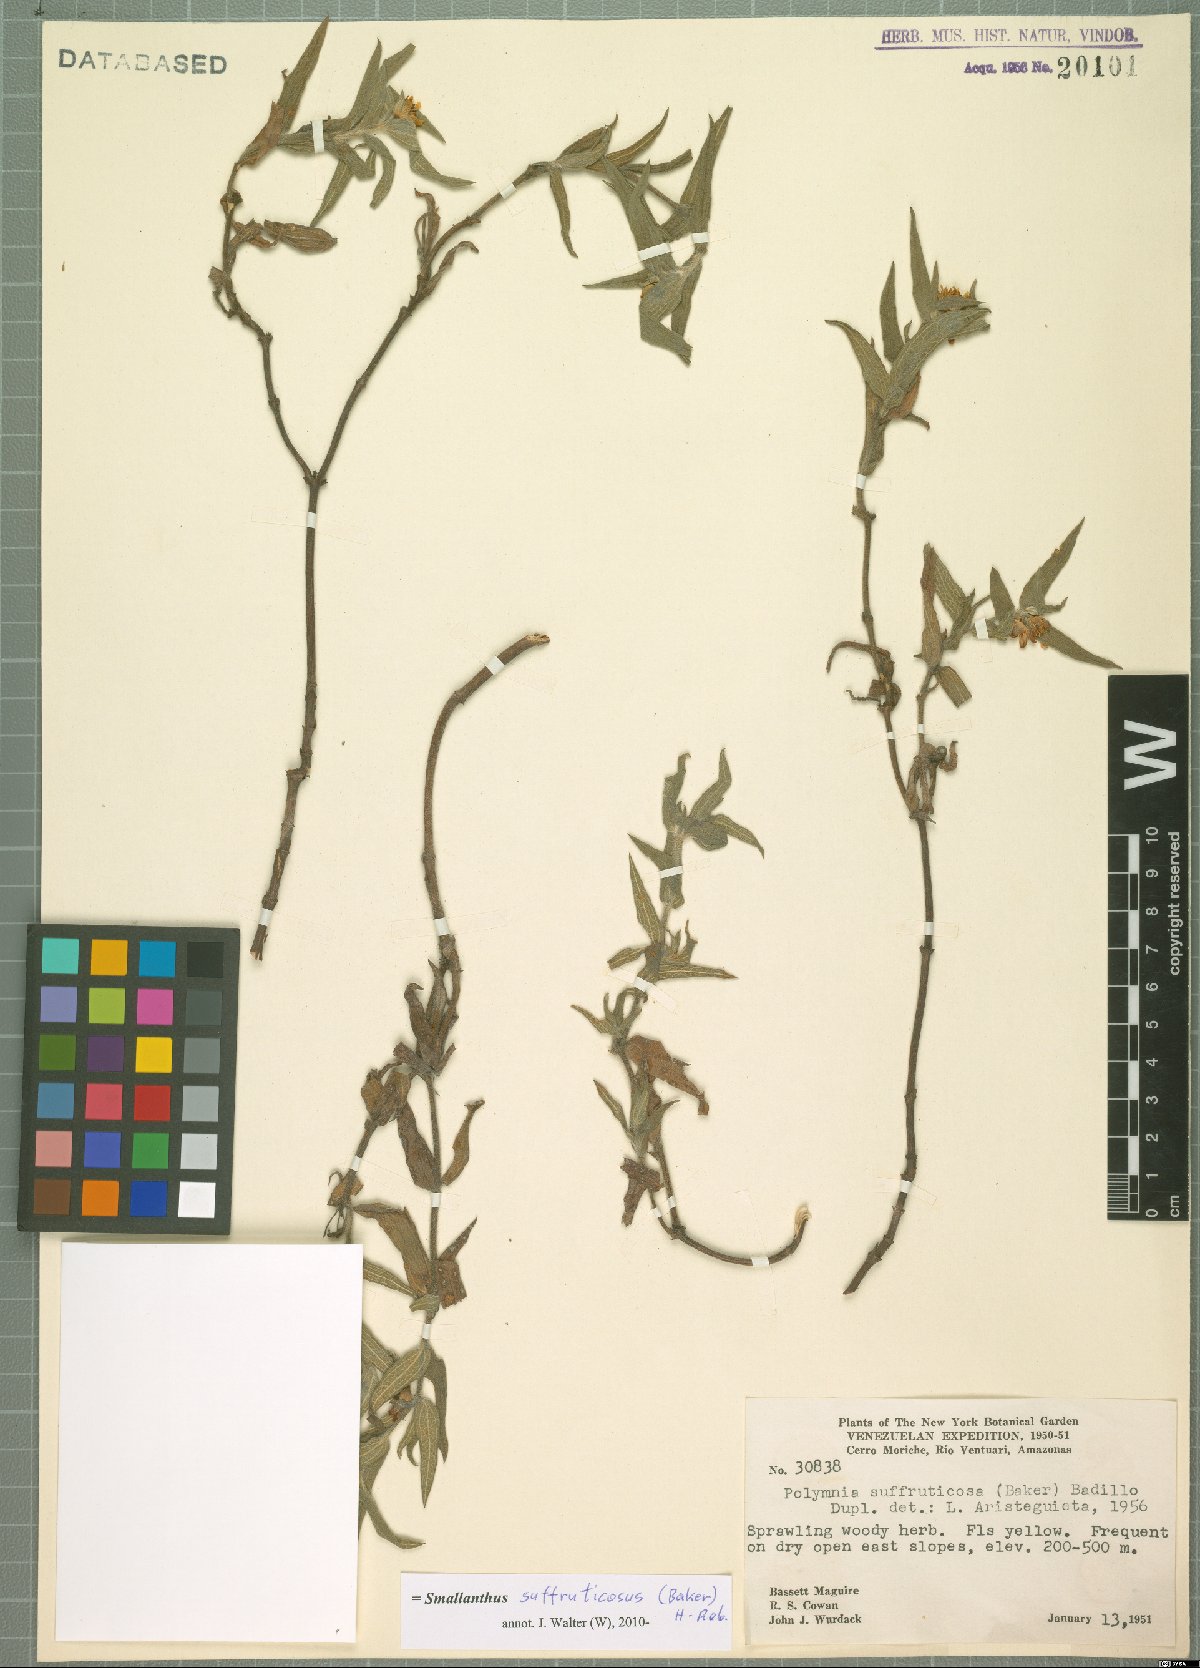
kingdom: Plantae
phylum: Tracheophyta
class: Magnoliopsida
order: Asterales
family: Asteraceae
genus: Unxia
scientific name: Unxia suffruticosa
